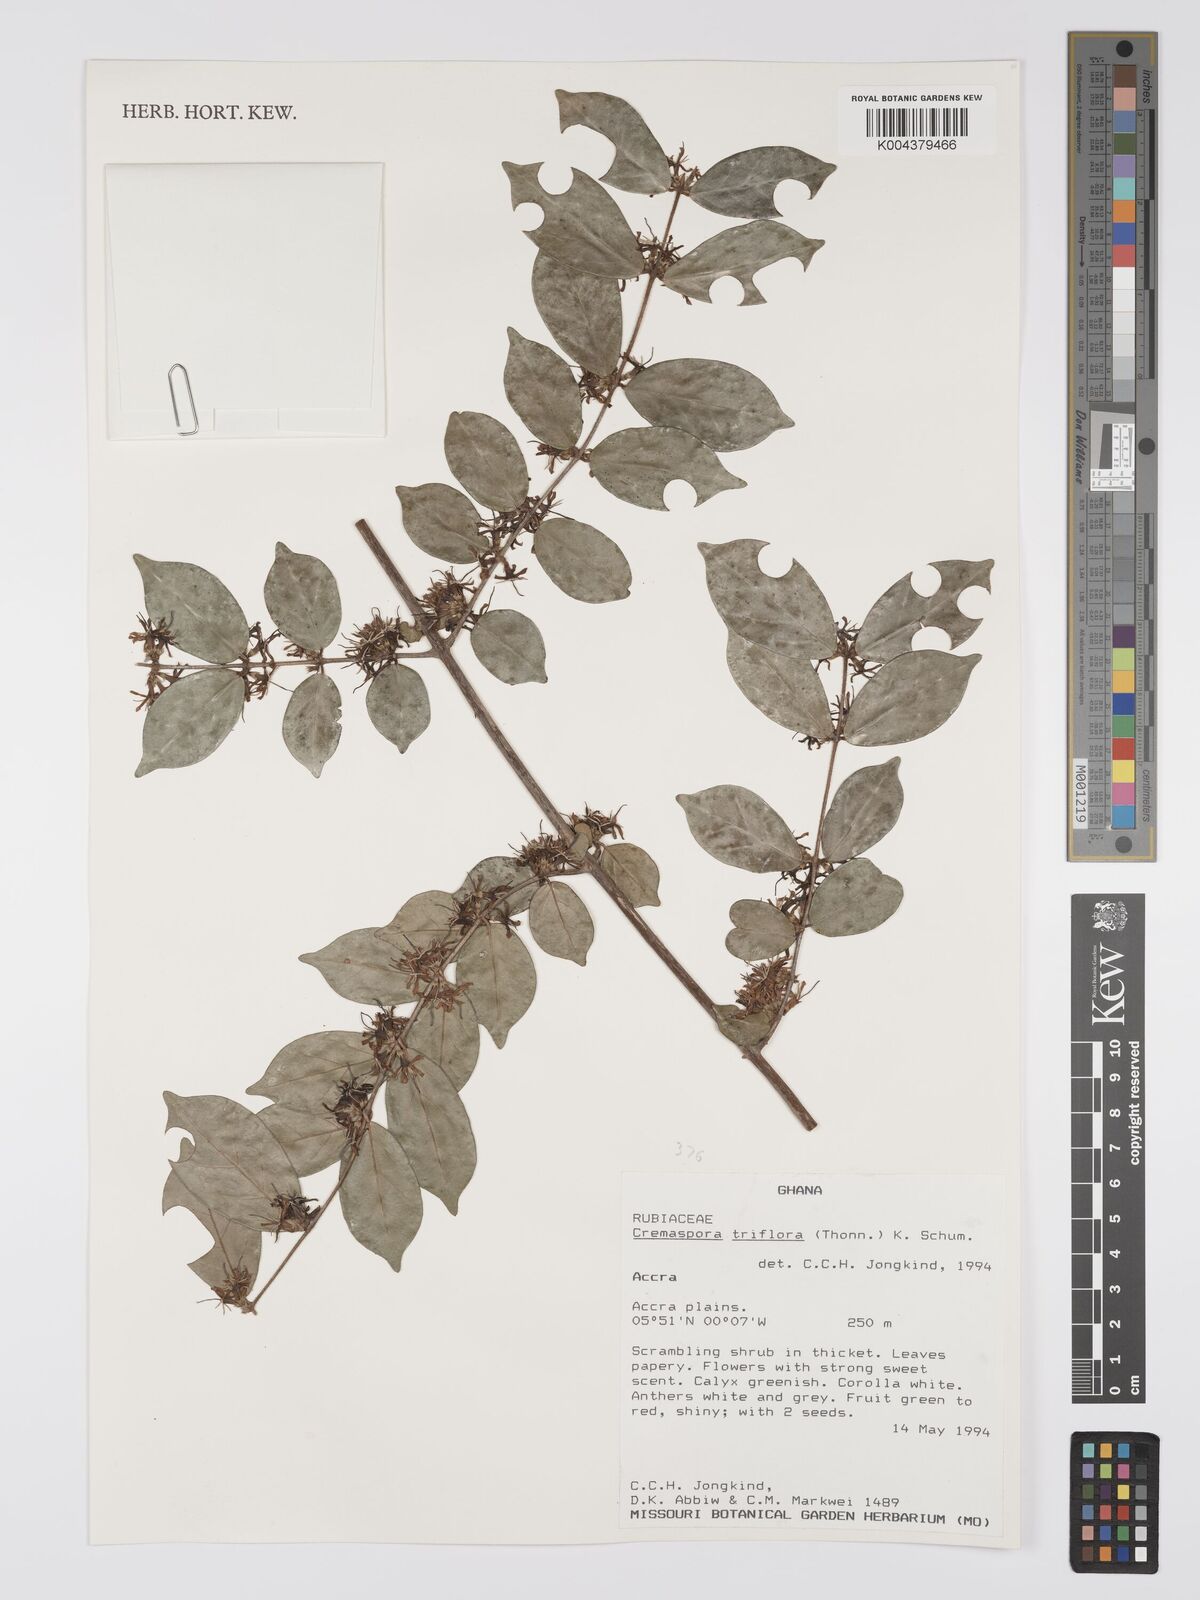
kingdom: Plantae
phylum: Tracheophyta
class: Magnoliopsida
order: Gentianales
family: Rubiaceae
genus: Cremaspora
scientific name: Cremaspora triflora
